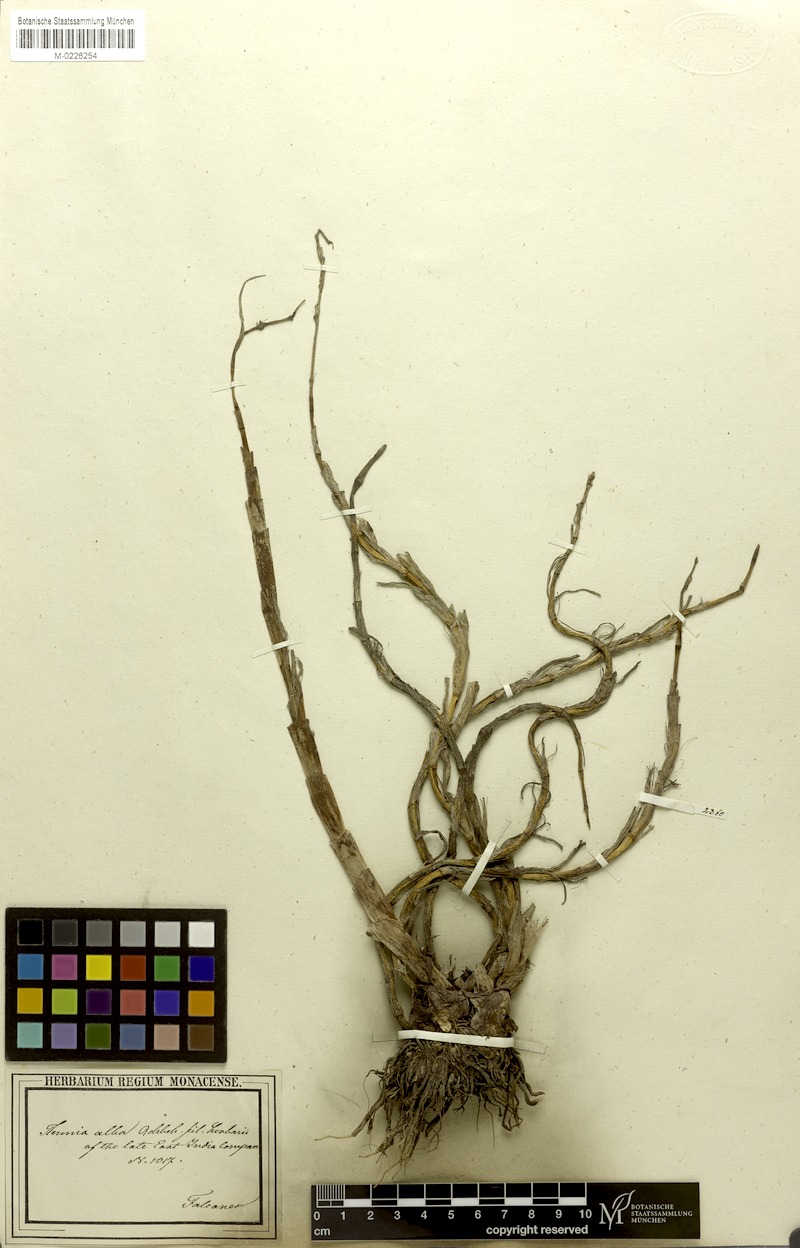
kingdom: Plantae
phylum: Tracheophyta
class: Liliopsida
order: Asparagales
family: Orchidaceae
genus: Thunia
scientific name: Thunia alba
